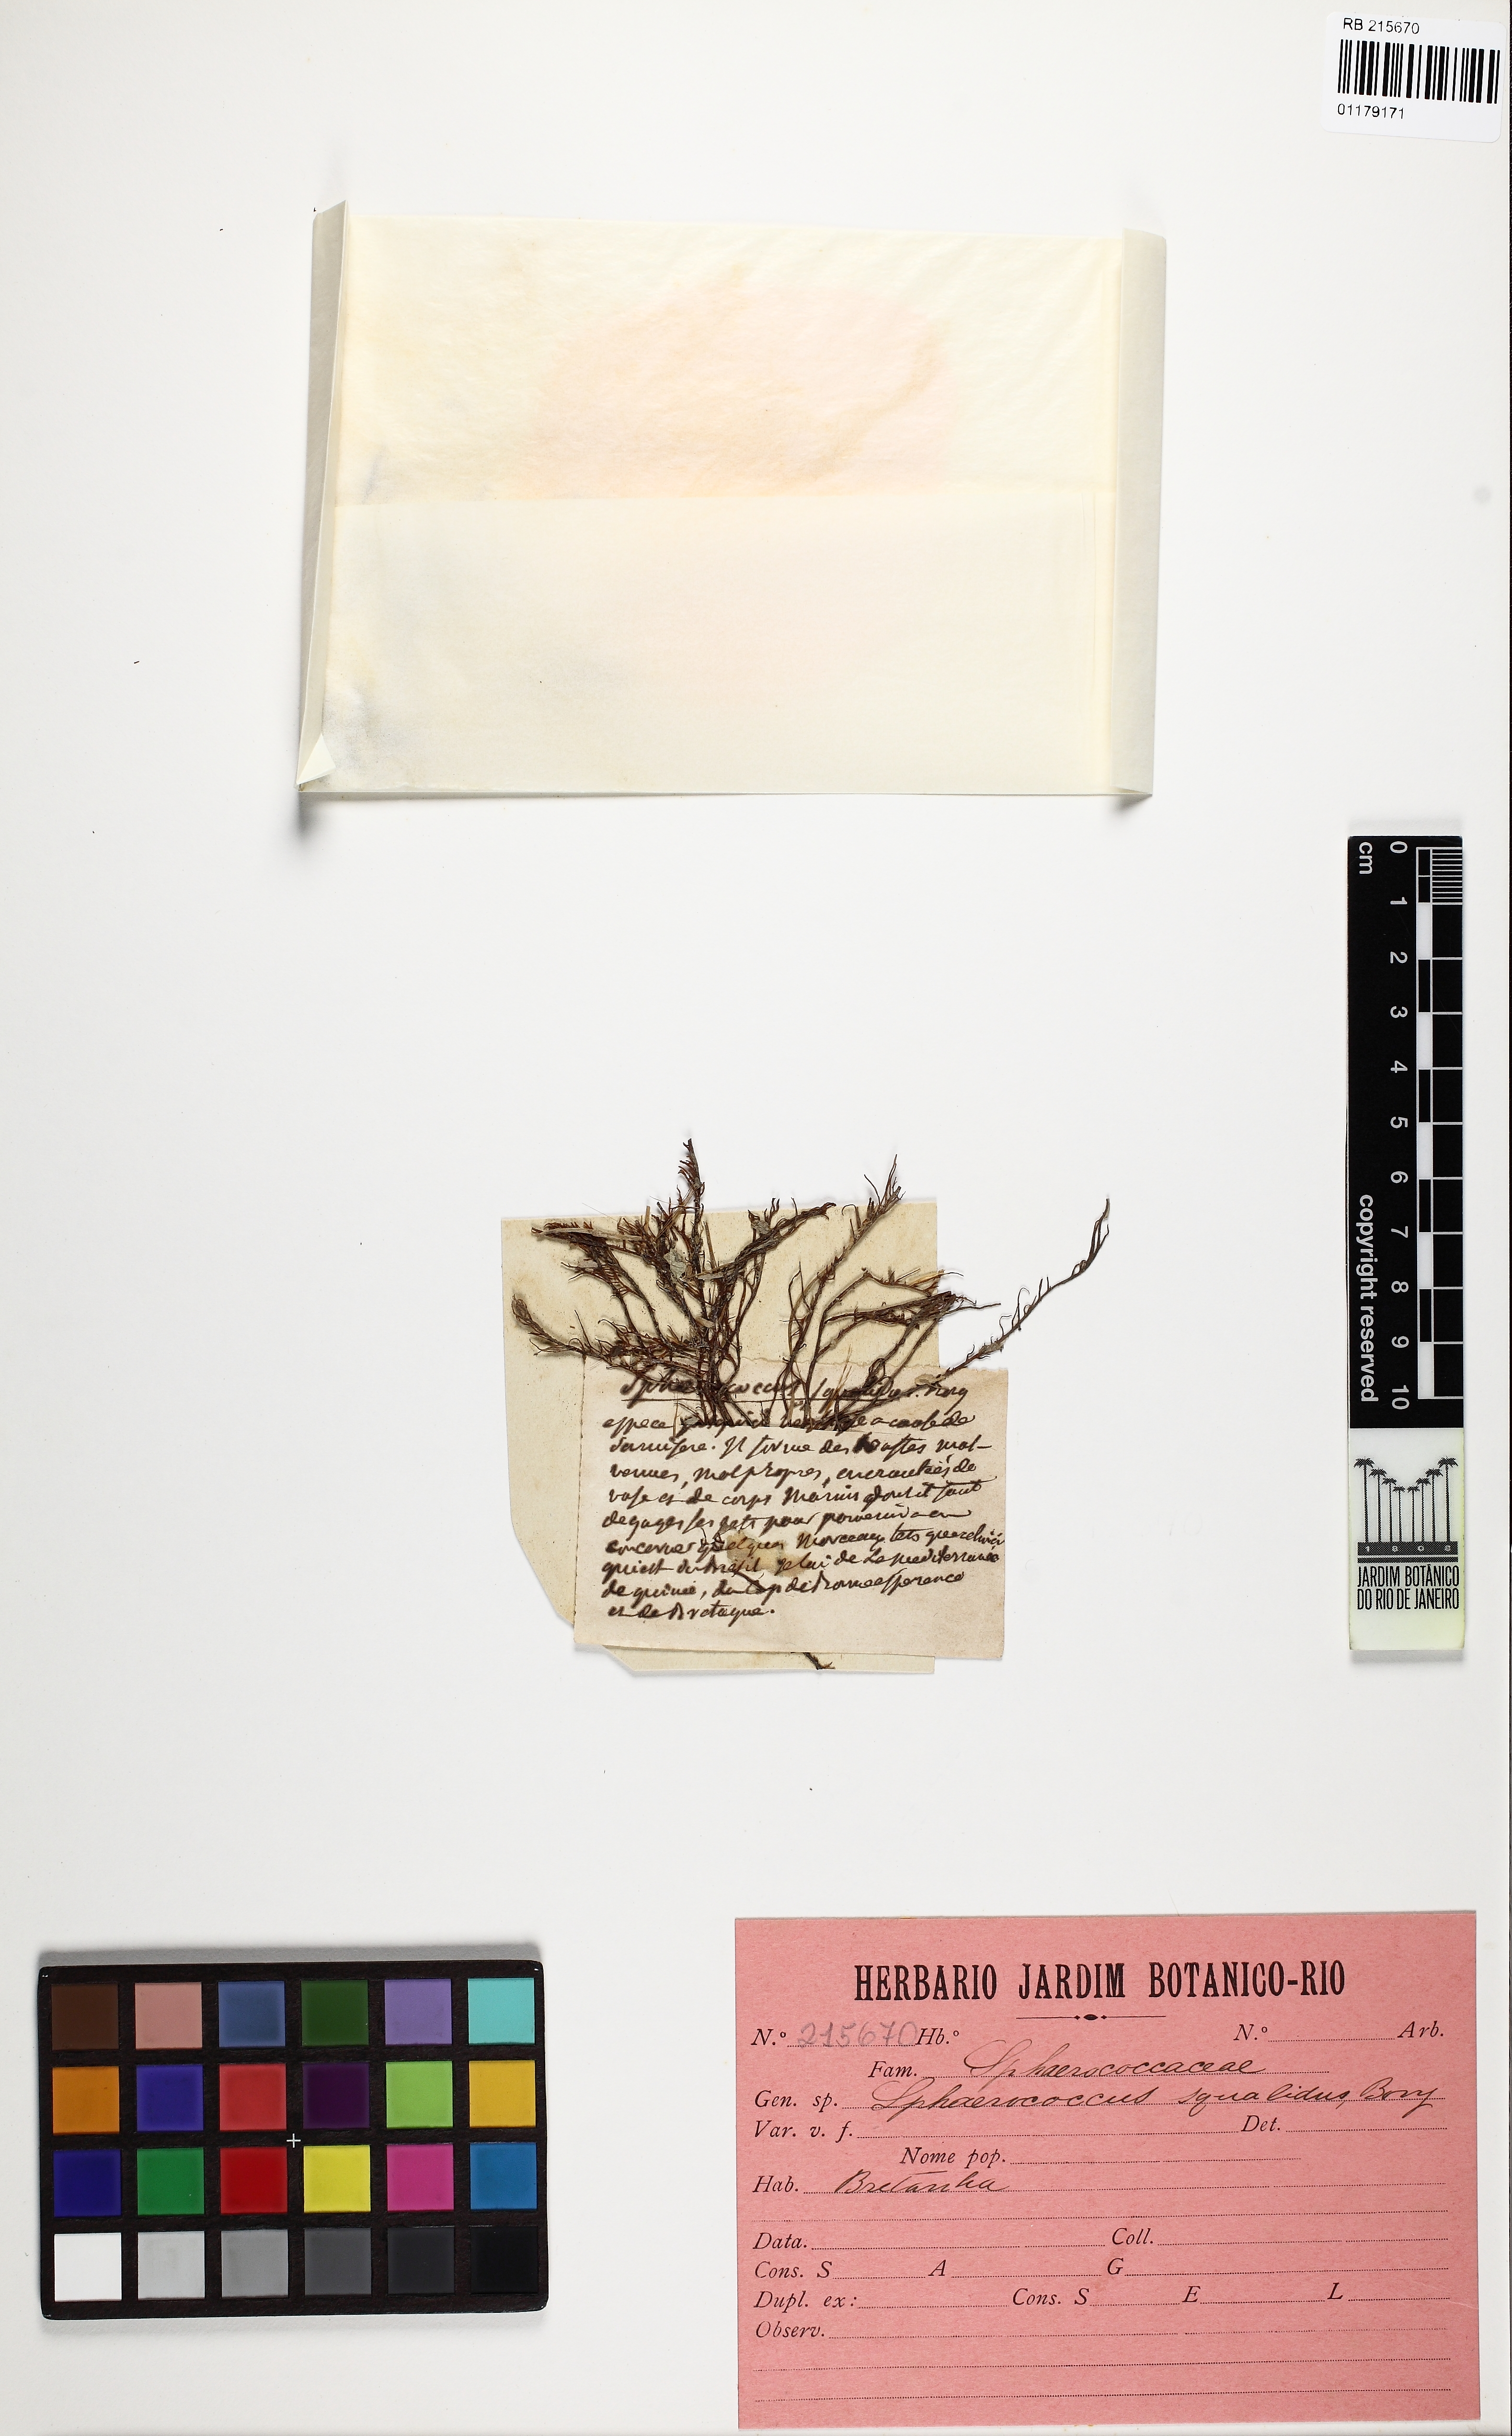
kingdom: Plantae
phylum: Rhodophyta
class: Florideophyceae
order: Gigartinales
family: Sphaerococcaceae
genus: Sphaerococcus
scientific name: Sphaerococcus
